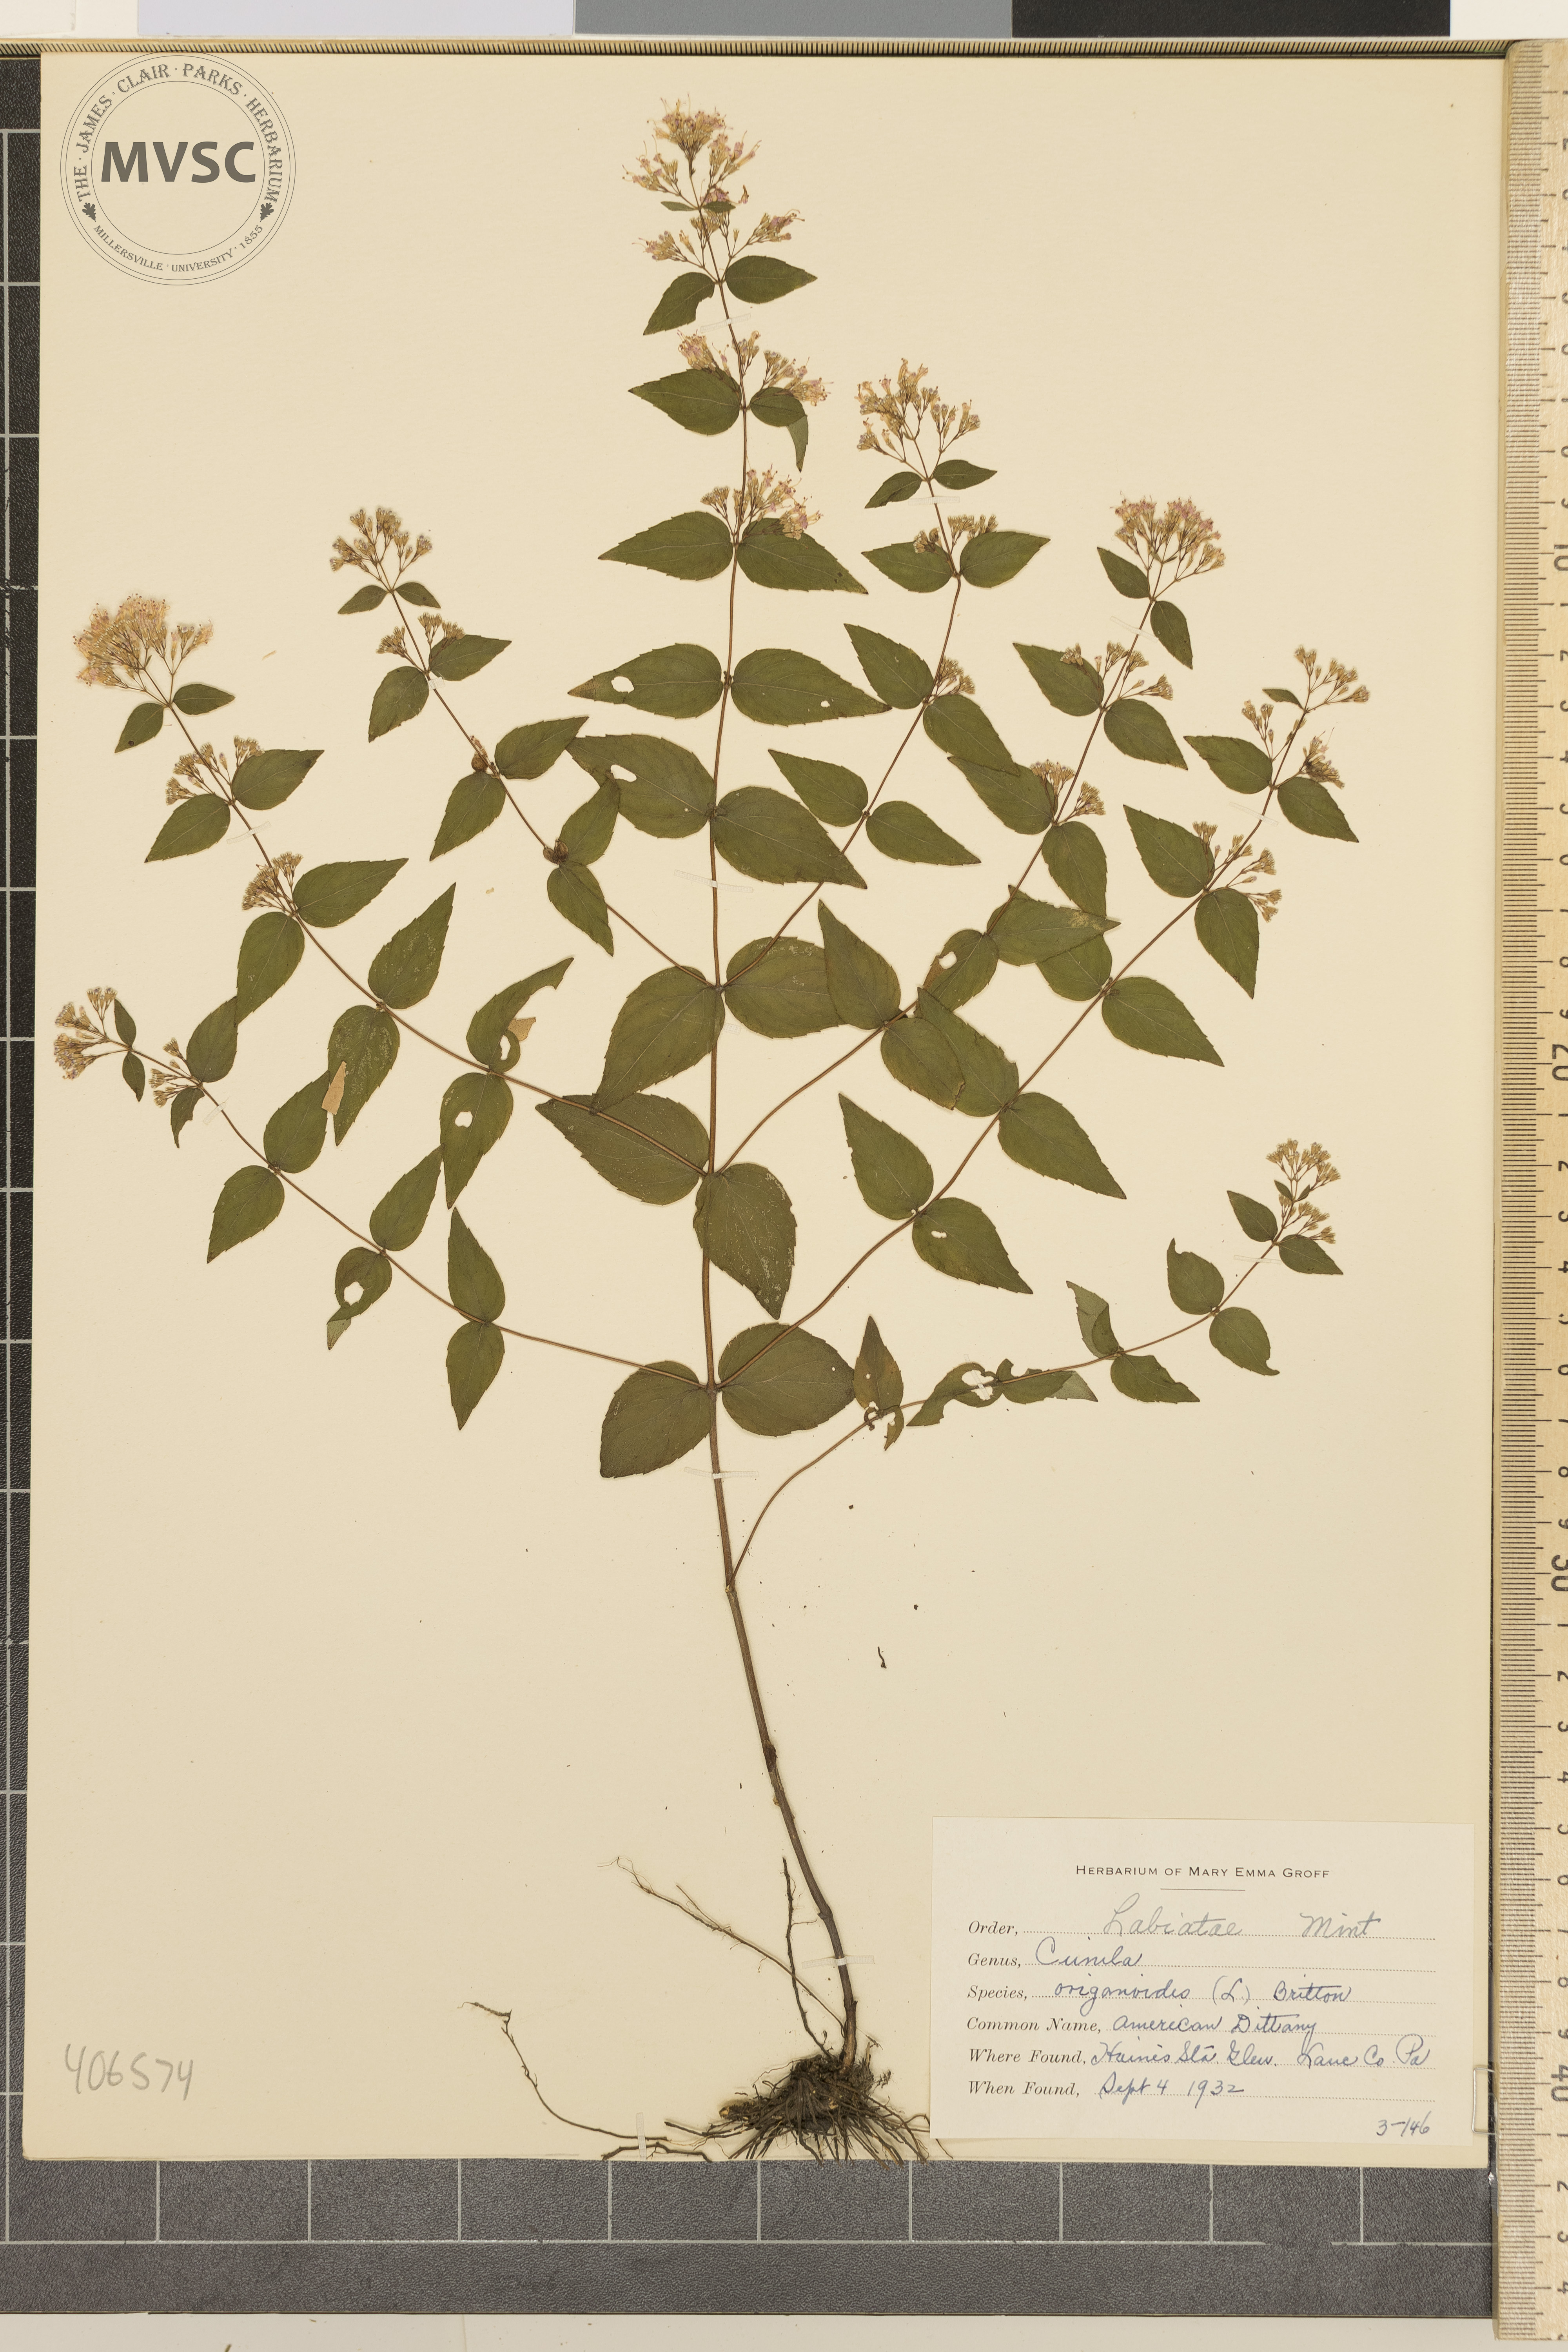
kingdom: Plantae
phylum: Tracheophyta
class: Magnoliopsida
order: Lamiales
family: Lamiaceae
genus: Cunila
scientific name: Cunila origanoides
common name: American Dittany
